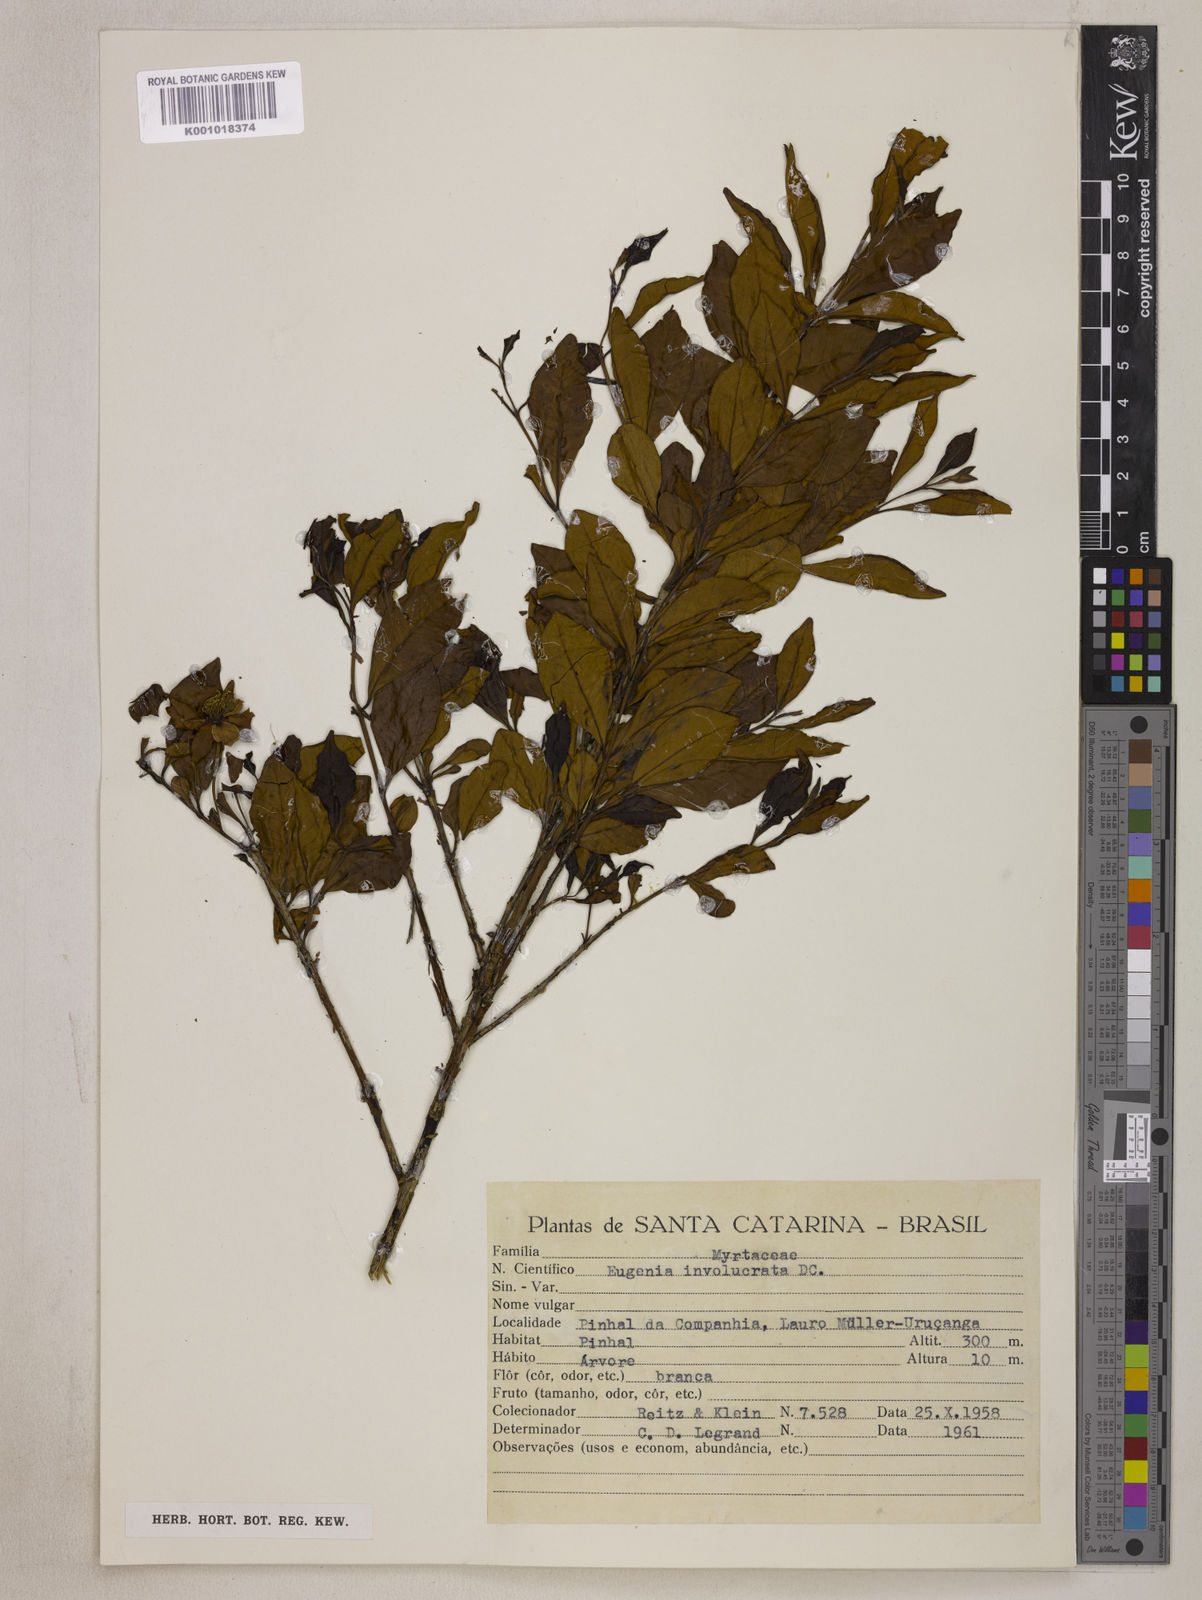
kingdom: Plantae
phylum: Tracheophyta
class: Magnoliopsida
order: Myrtales
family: Myrtaceae
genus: Eugenia
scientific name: Eugenia involucrata
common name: Cherry-of-the-rio grande
